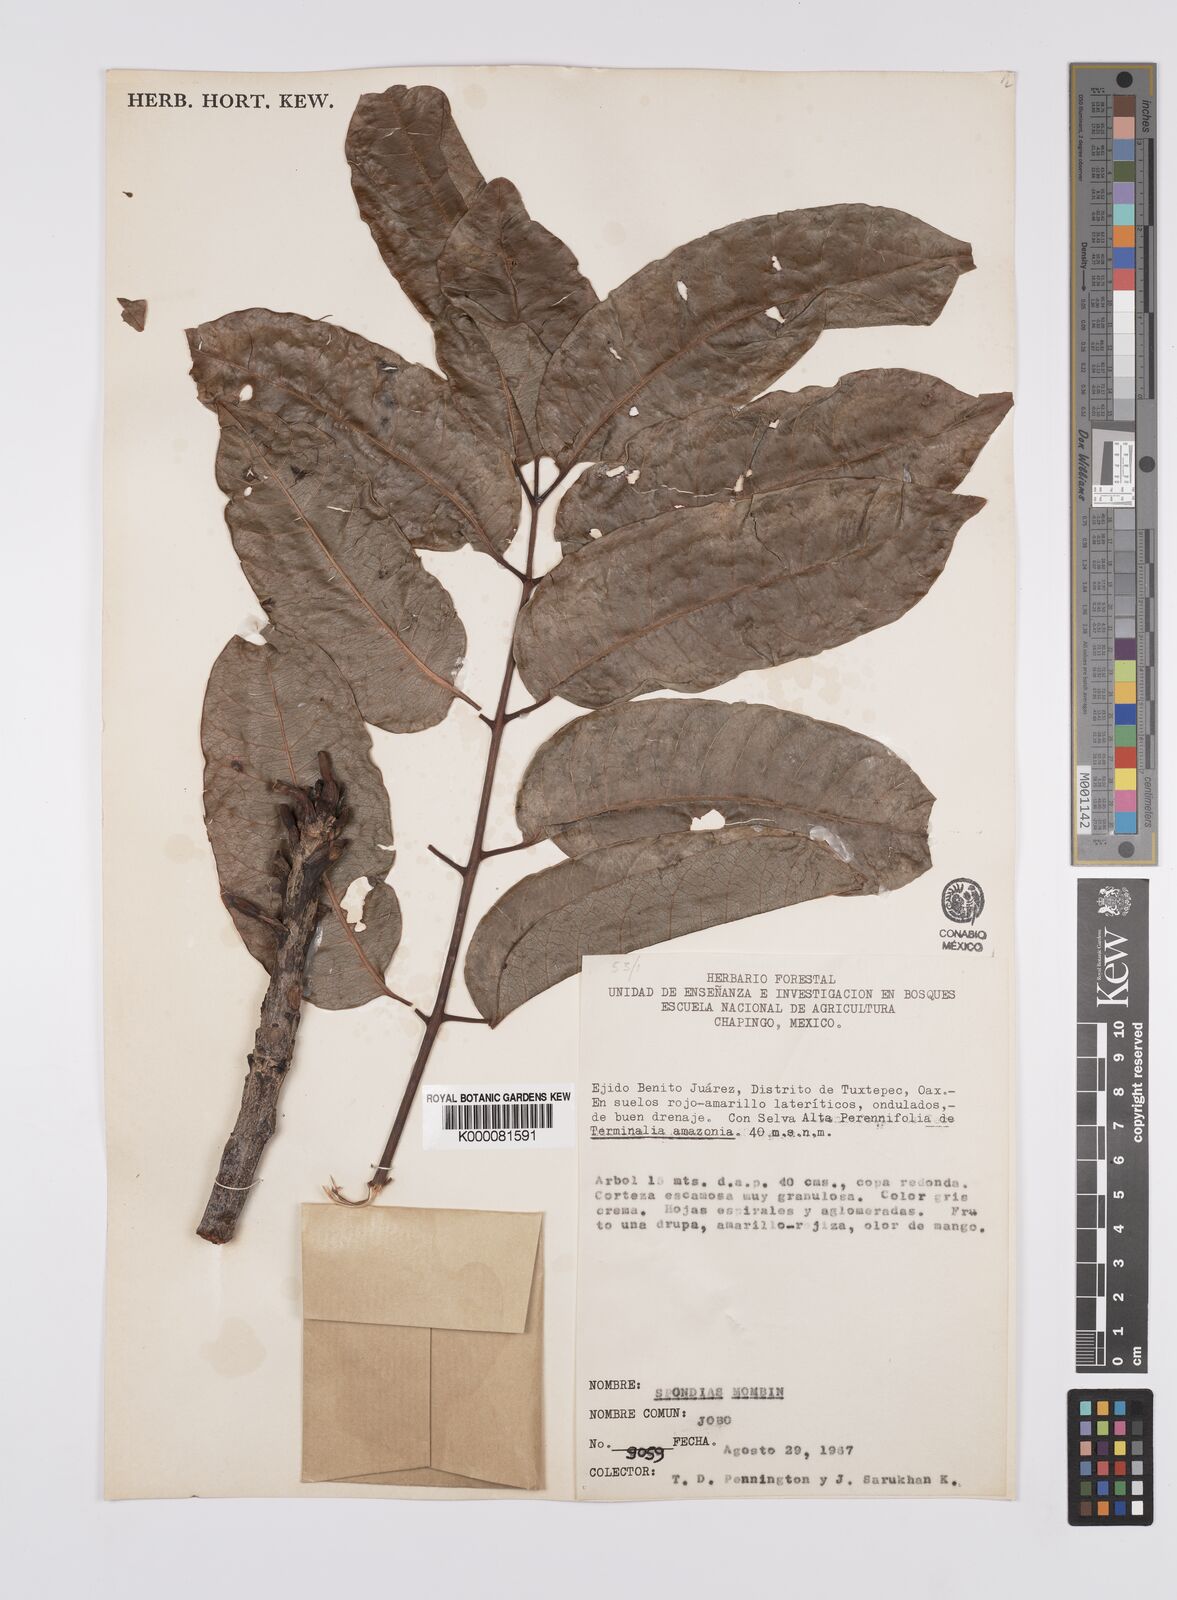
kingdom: Plantae
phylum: Tracheophyta
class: Magnoliopsida
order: Sapindales
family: Anacardiaceae
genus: Spondias
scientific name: Spondias mombin
